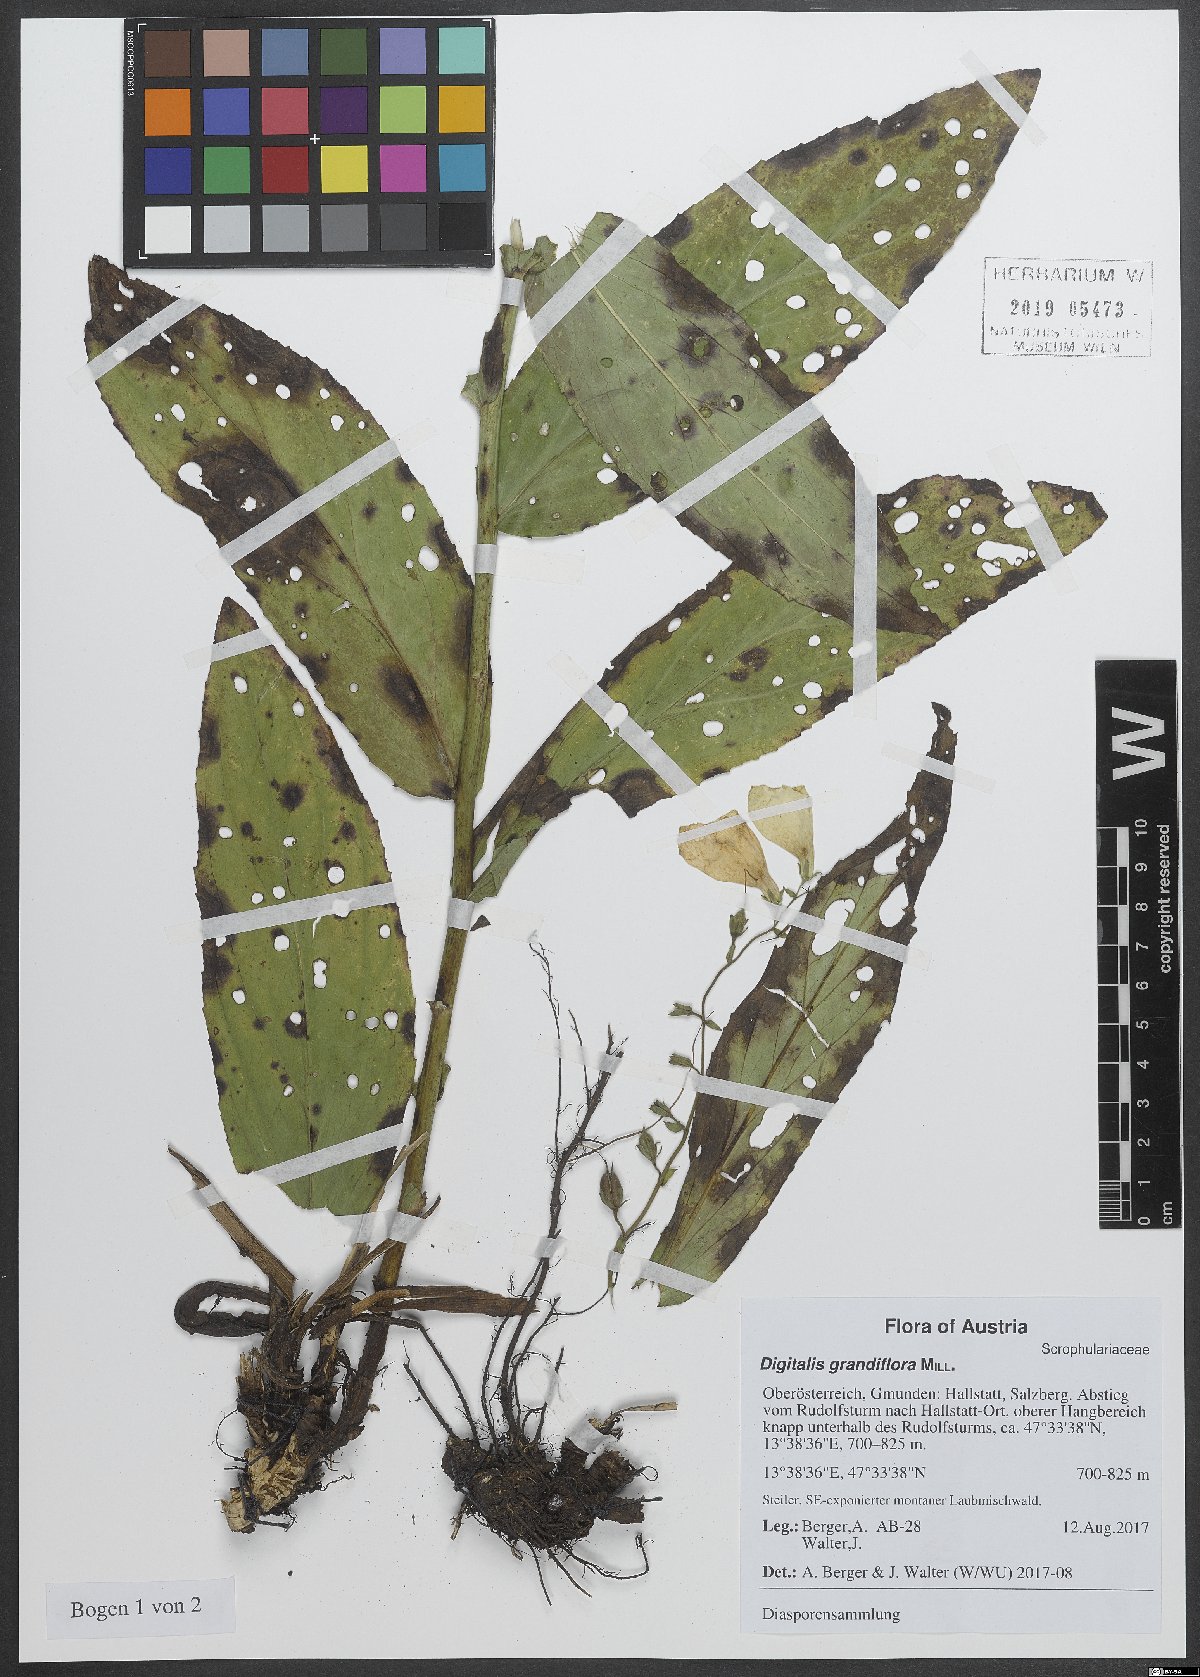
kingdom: Plantae
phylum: Tracheophyta
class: Magnoliopsida
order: Lamiales
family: Plantaginaceae
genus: Digitalis
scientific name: Digitalis grandiflora
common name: Yellow foxglove
